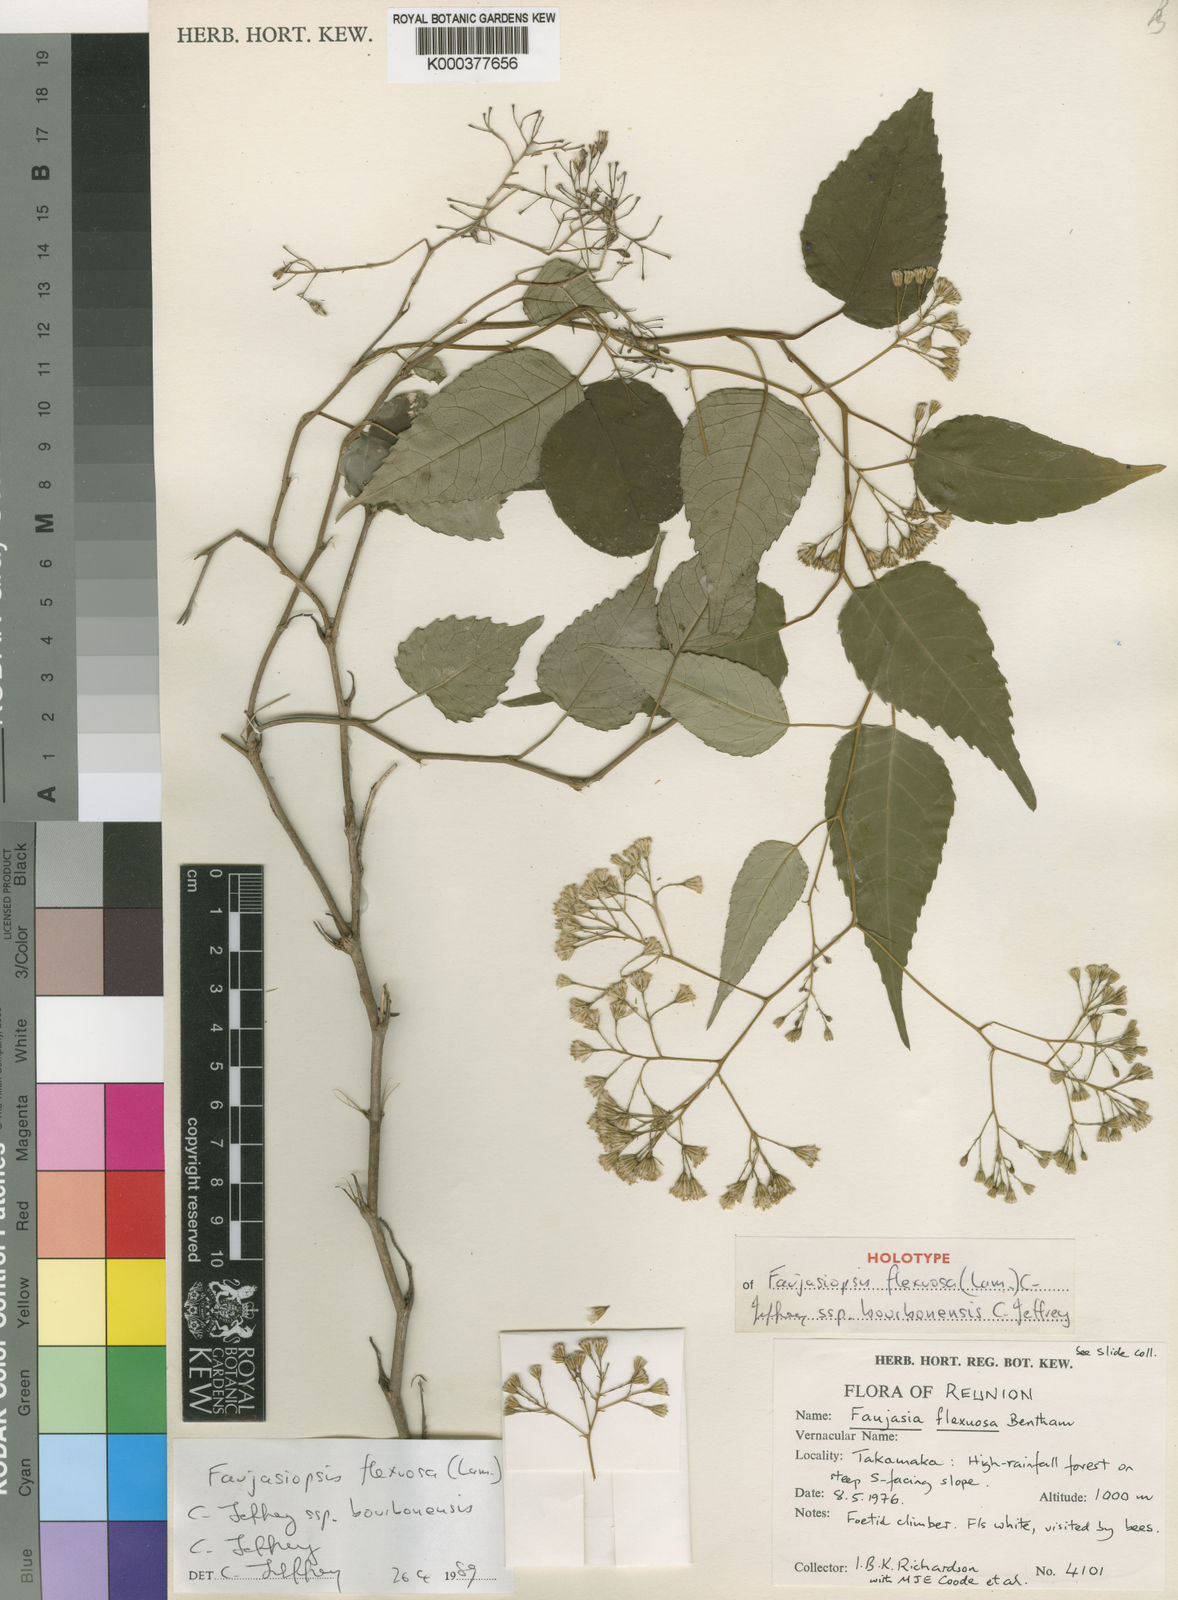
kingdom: Plantae
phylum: Tracheophyta
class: Magnoliopsida
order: Asterales
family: Asteraceae
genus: Faujasiopsis
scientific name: Faujasiopsis flexuosa
